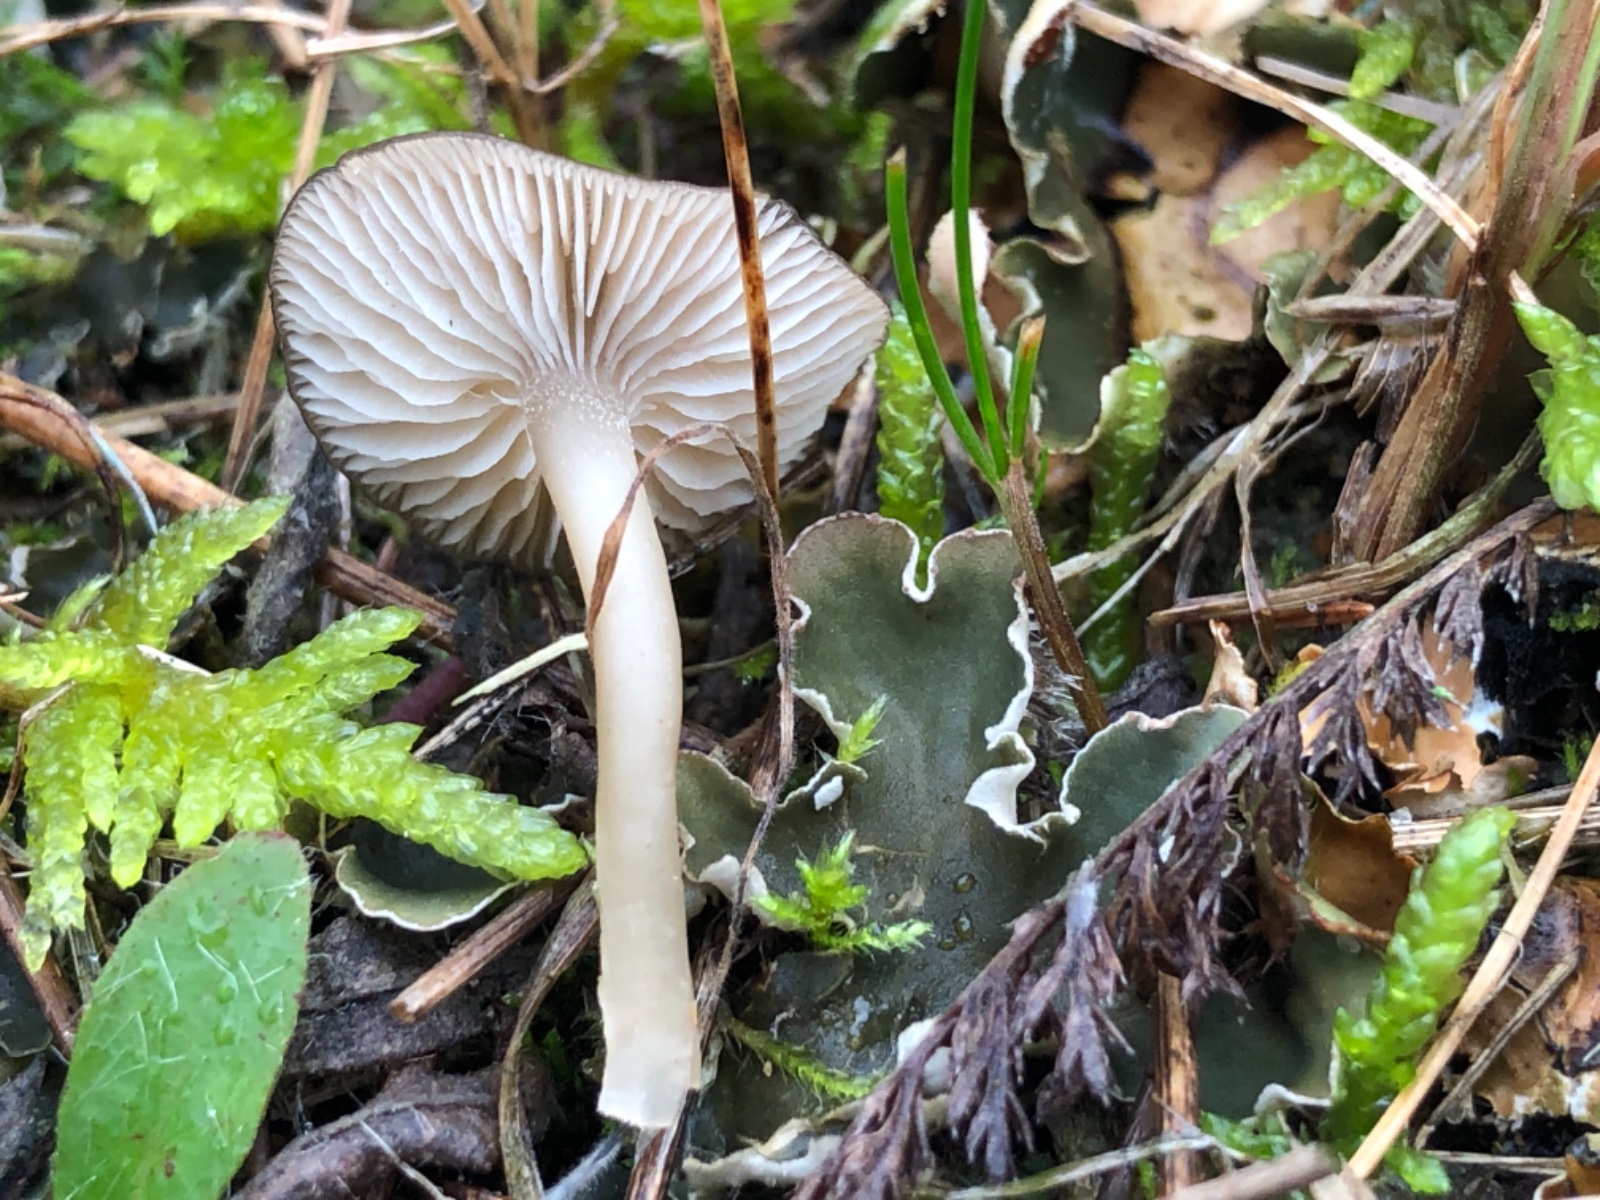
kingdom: Fungi
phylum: Basidiomycota
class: Agaricomycetes
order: Agaricales
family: Tricholomataceae
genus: Gamundia
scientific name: Gamundia xerophila
